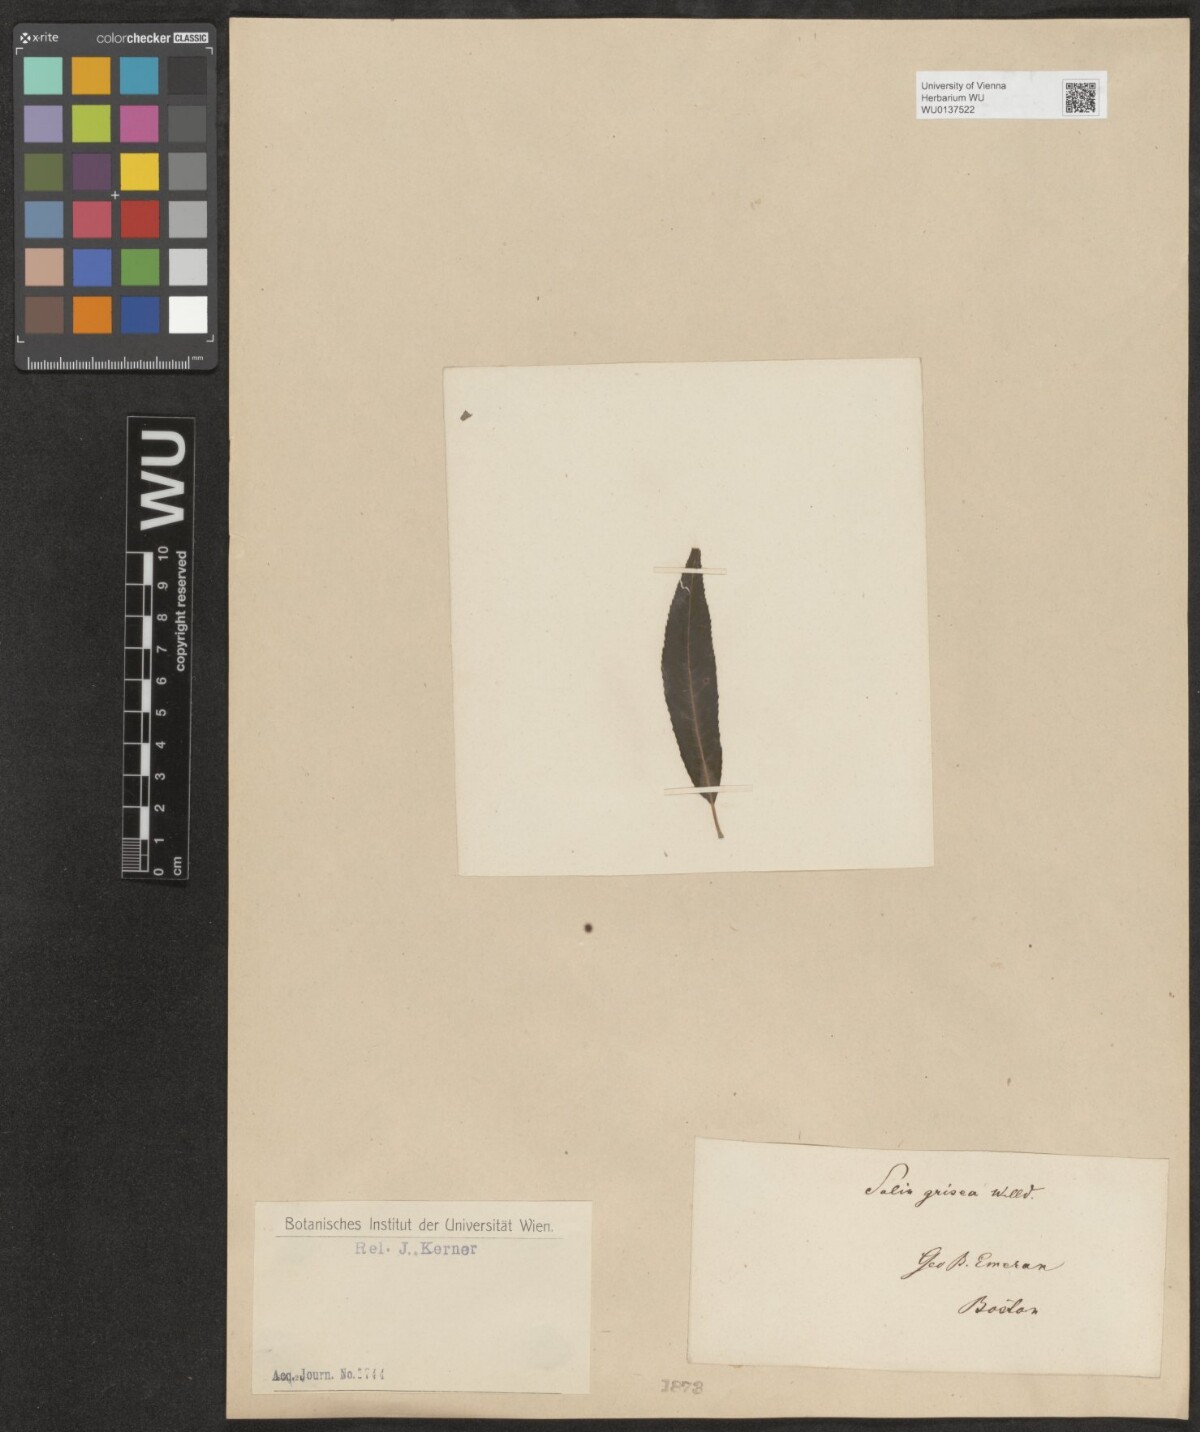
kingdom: Plantae
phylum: Tracheophyta
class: Magnoliopsida
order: Malpighiales
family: Salicaceae
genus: Salix
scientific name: Salix sericea
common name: Silky willow
